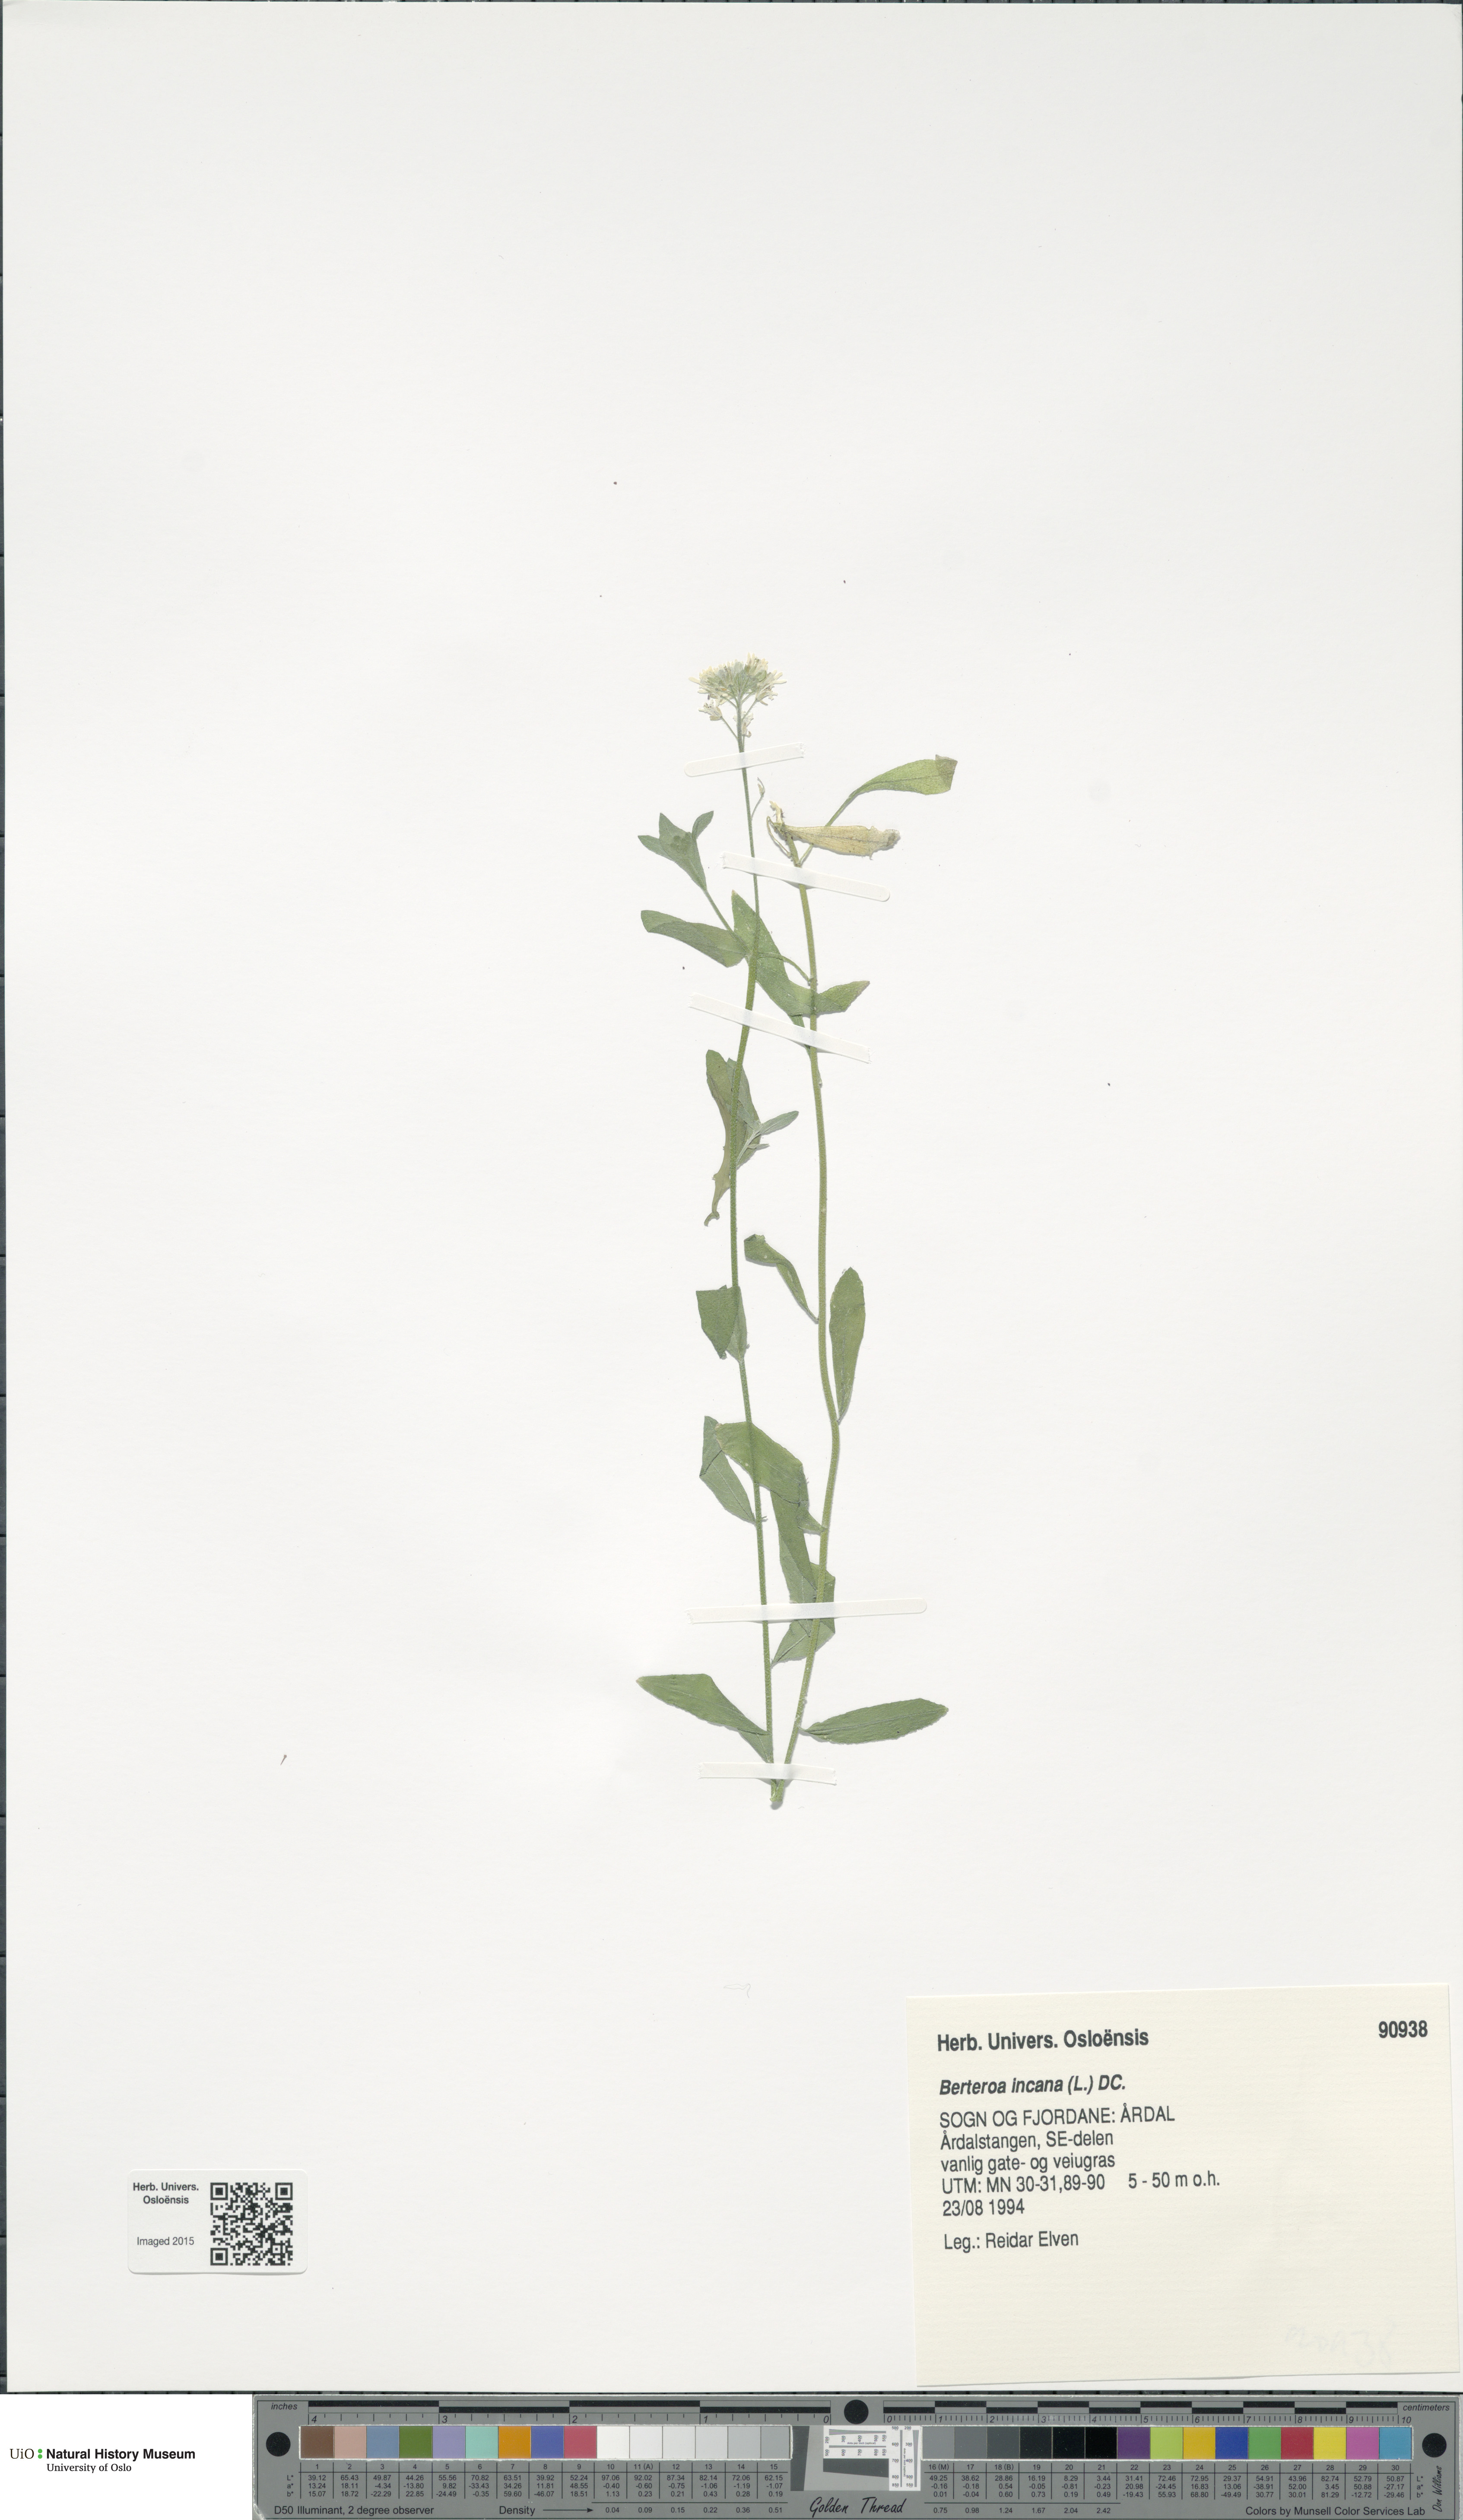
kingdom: Plantae
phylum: Tracheophyta
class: Magnoliopsida
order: Brassicales
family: Brassicaceae
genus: Berteroa
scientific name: Berteroa incana
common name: Hoary alison
